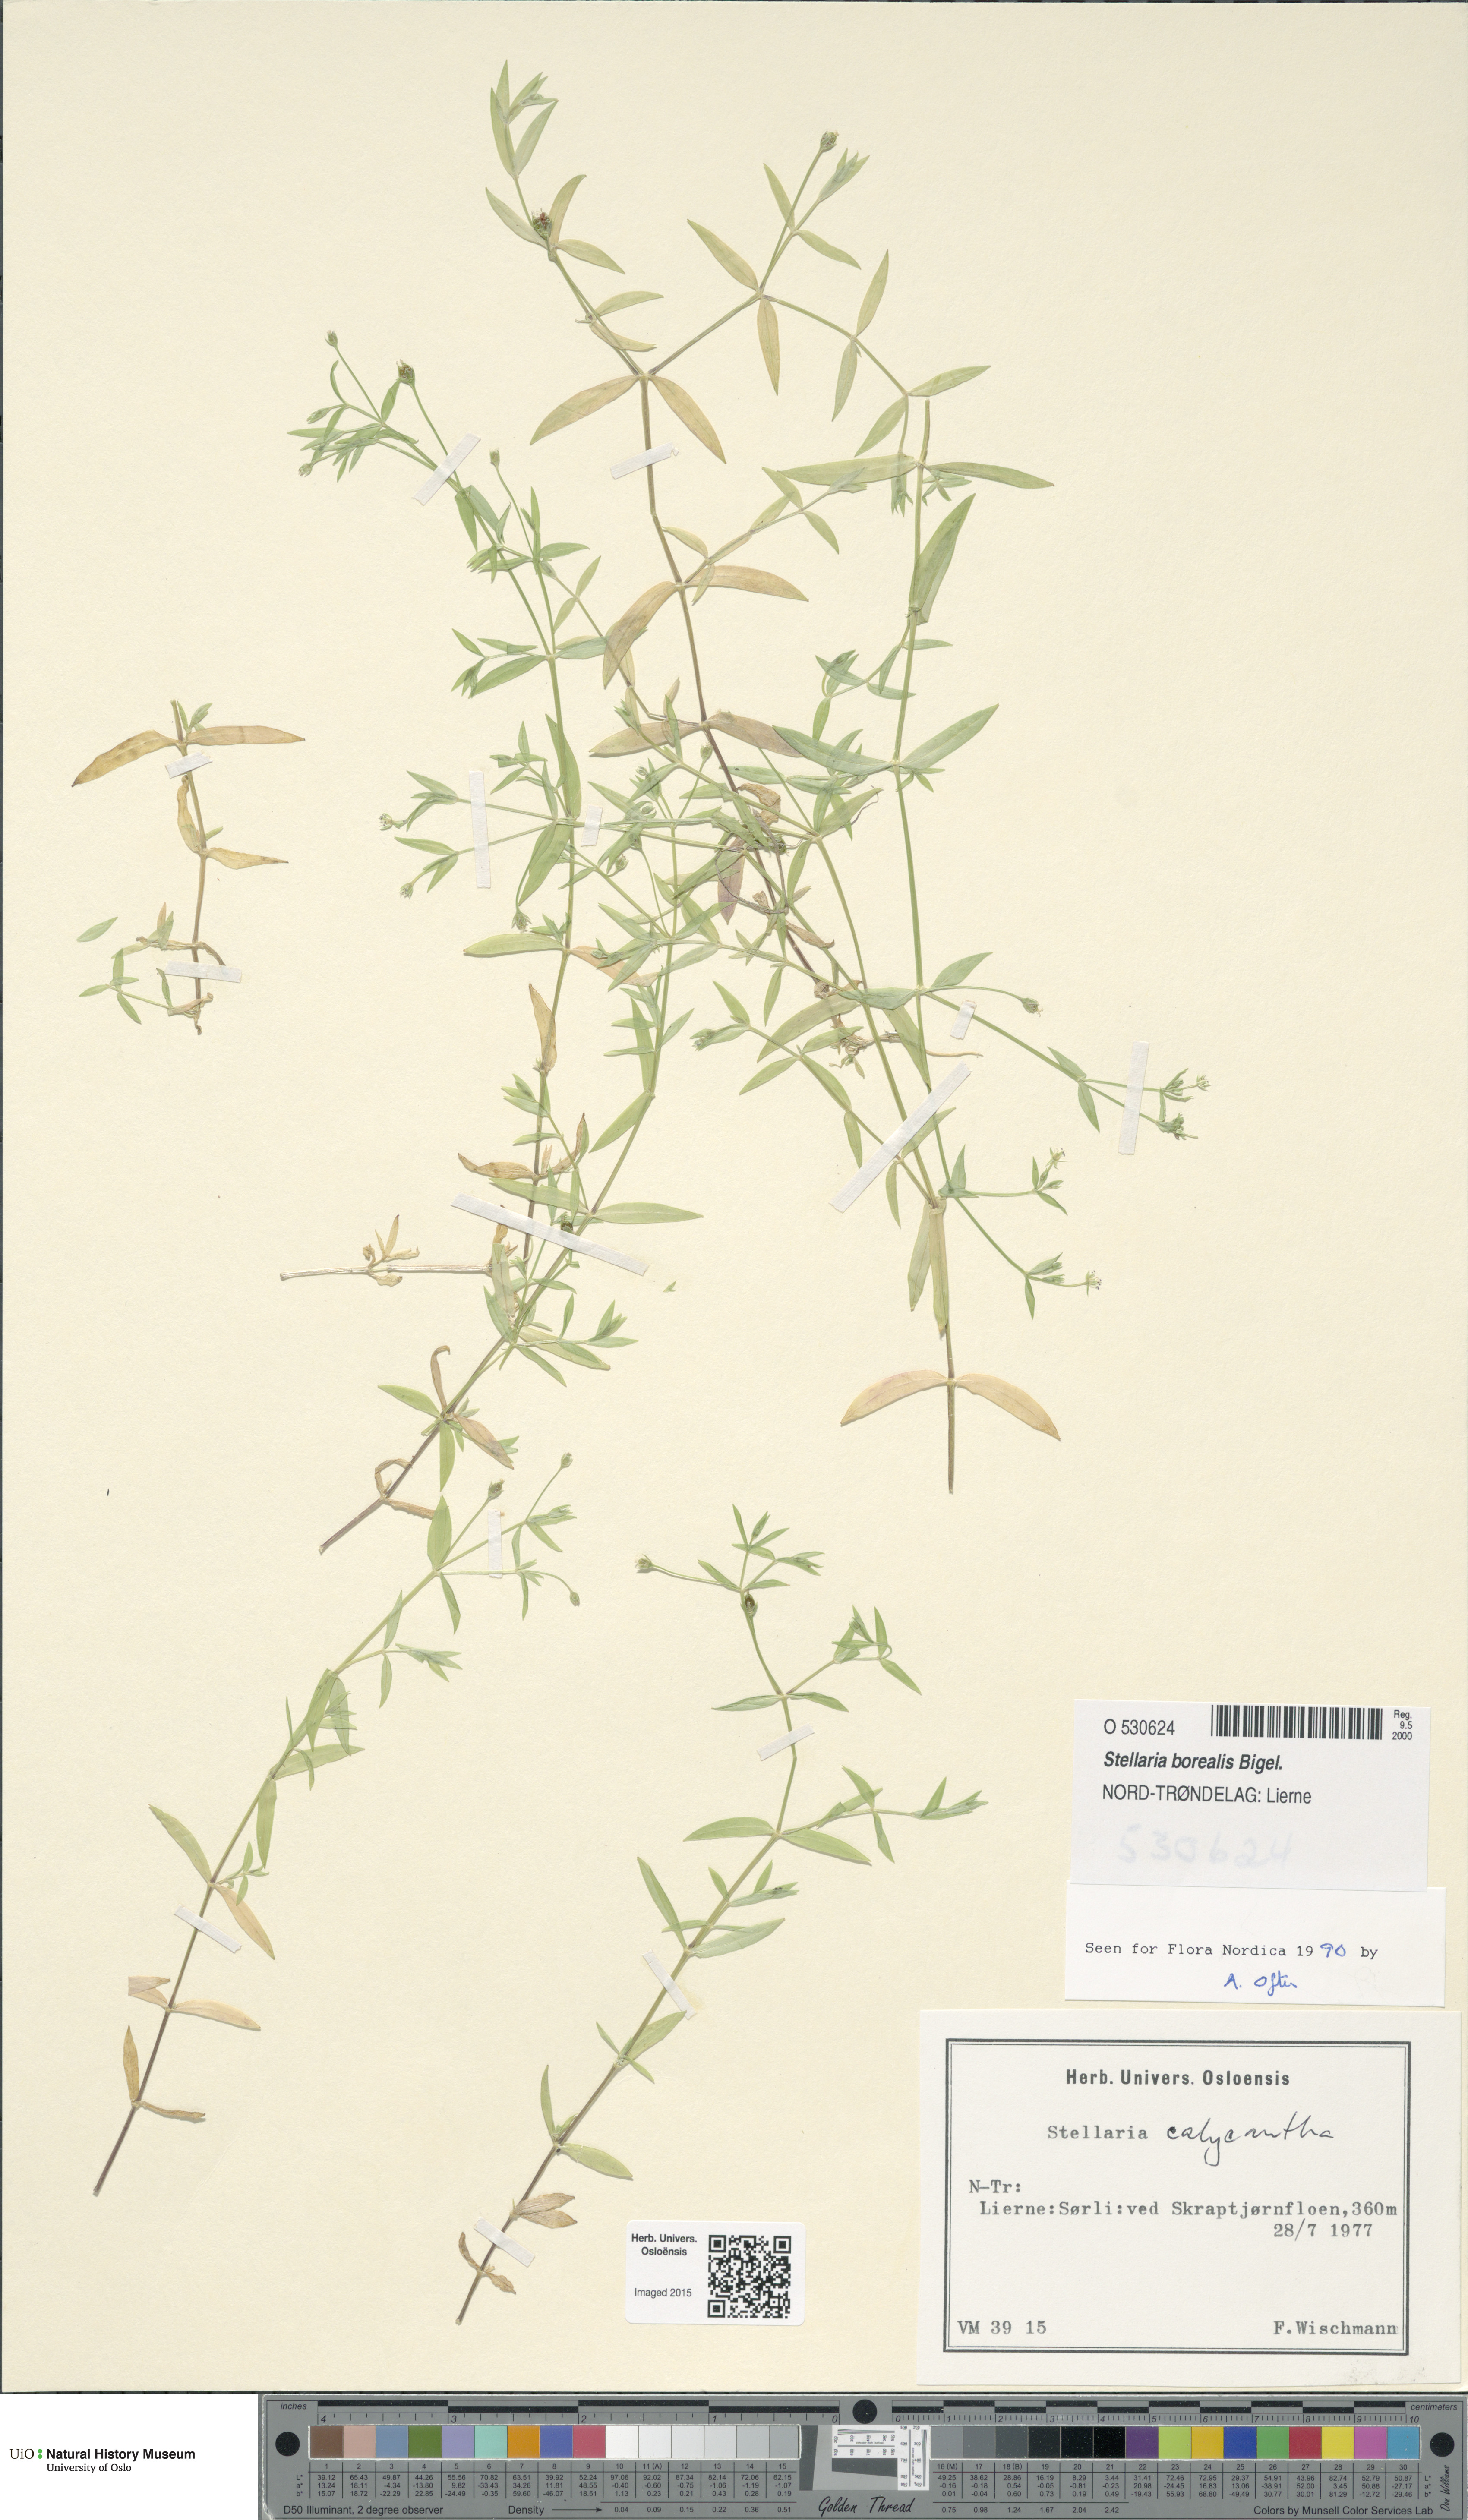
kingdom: Plantae
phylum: Tracheophyta
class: Magnoliopsida
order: Caryophyllales
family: Caryophyllaceae
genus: Stellaria
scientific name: Stellaria borealis
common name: Boreal starwort
